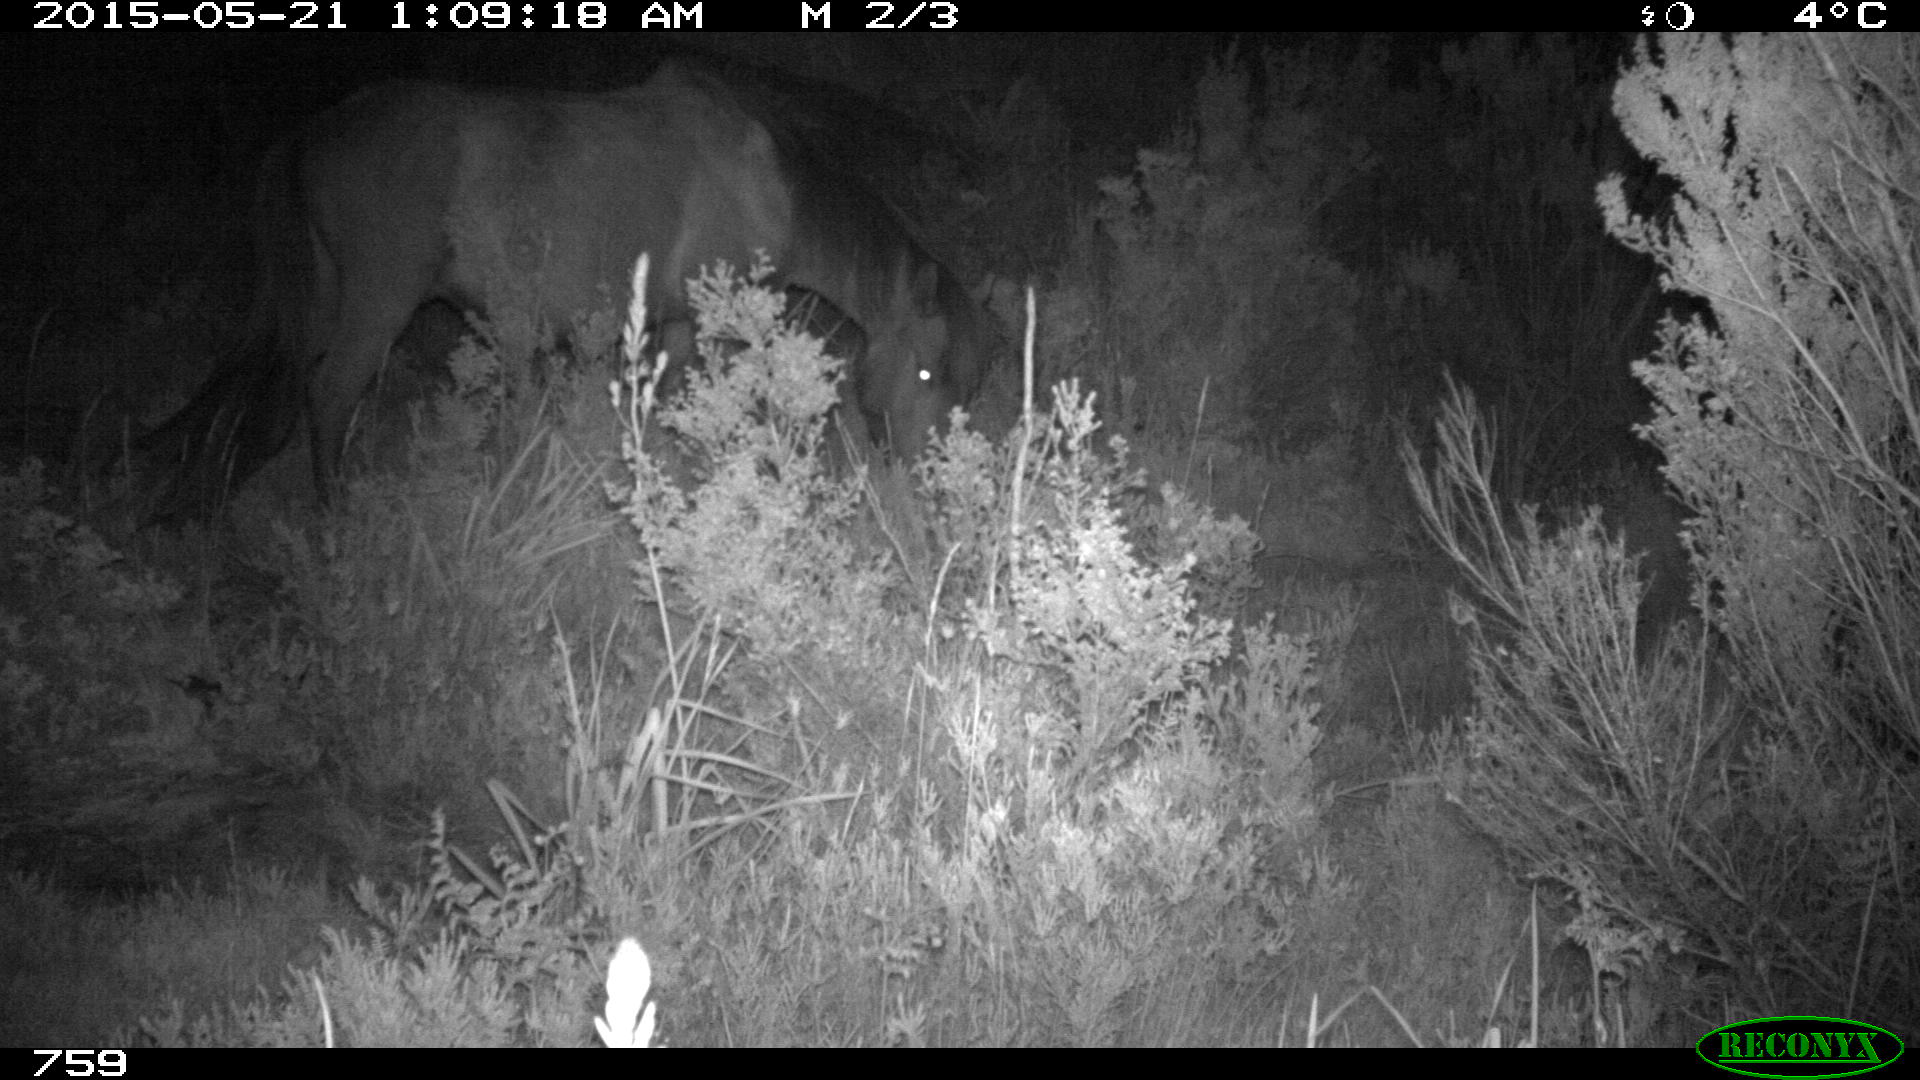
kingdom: Animalia
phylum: Chordata
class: Mammalia
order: Perissodactyla
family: Equidae
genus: Equus
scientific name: Equus caballus
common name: Horse
